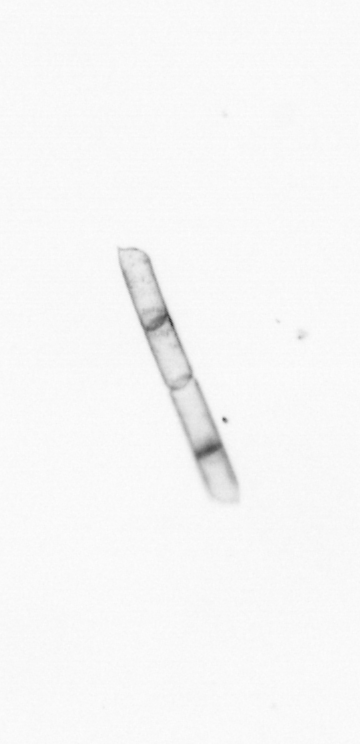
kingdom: Chromista
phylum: Ochrophyta
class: Bacillariophyceae
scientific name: Bacillariophyceae
